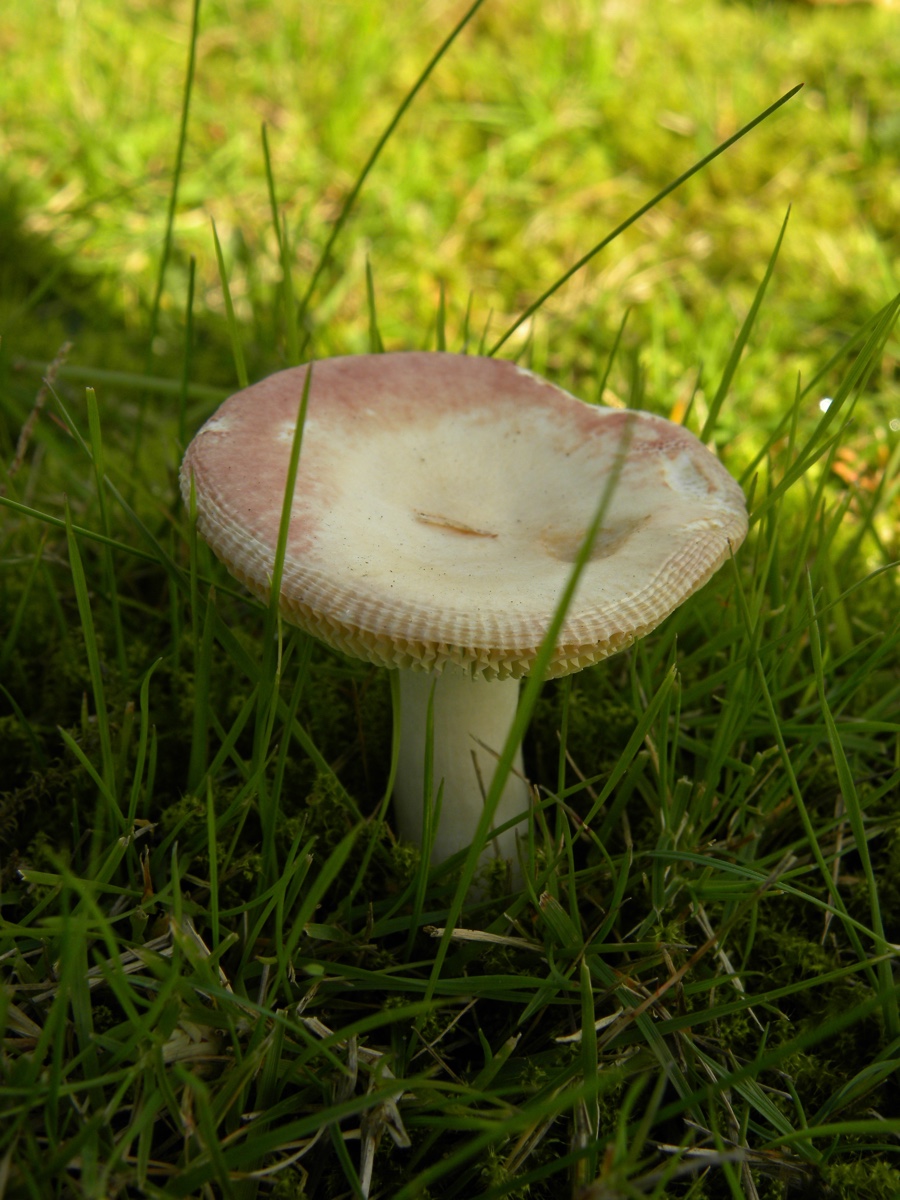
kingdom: Fungi
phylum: Basidiomycota
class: Agaricomycetes
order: Russulales
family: Russulaceae
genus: Russula
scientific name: Russula versicolor
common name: foranderlig skørhat
